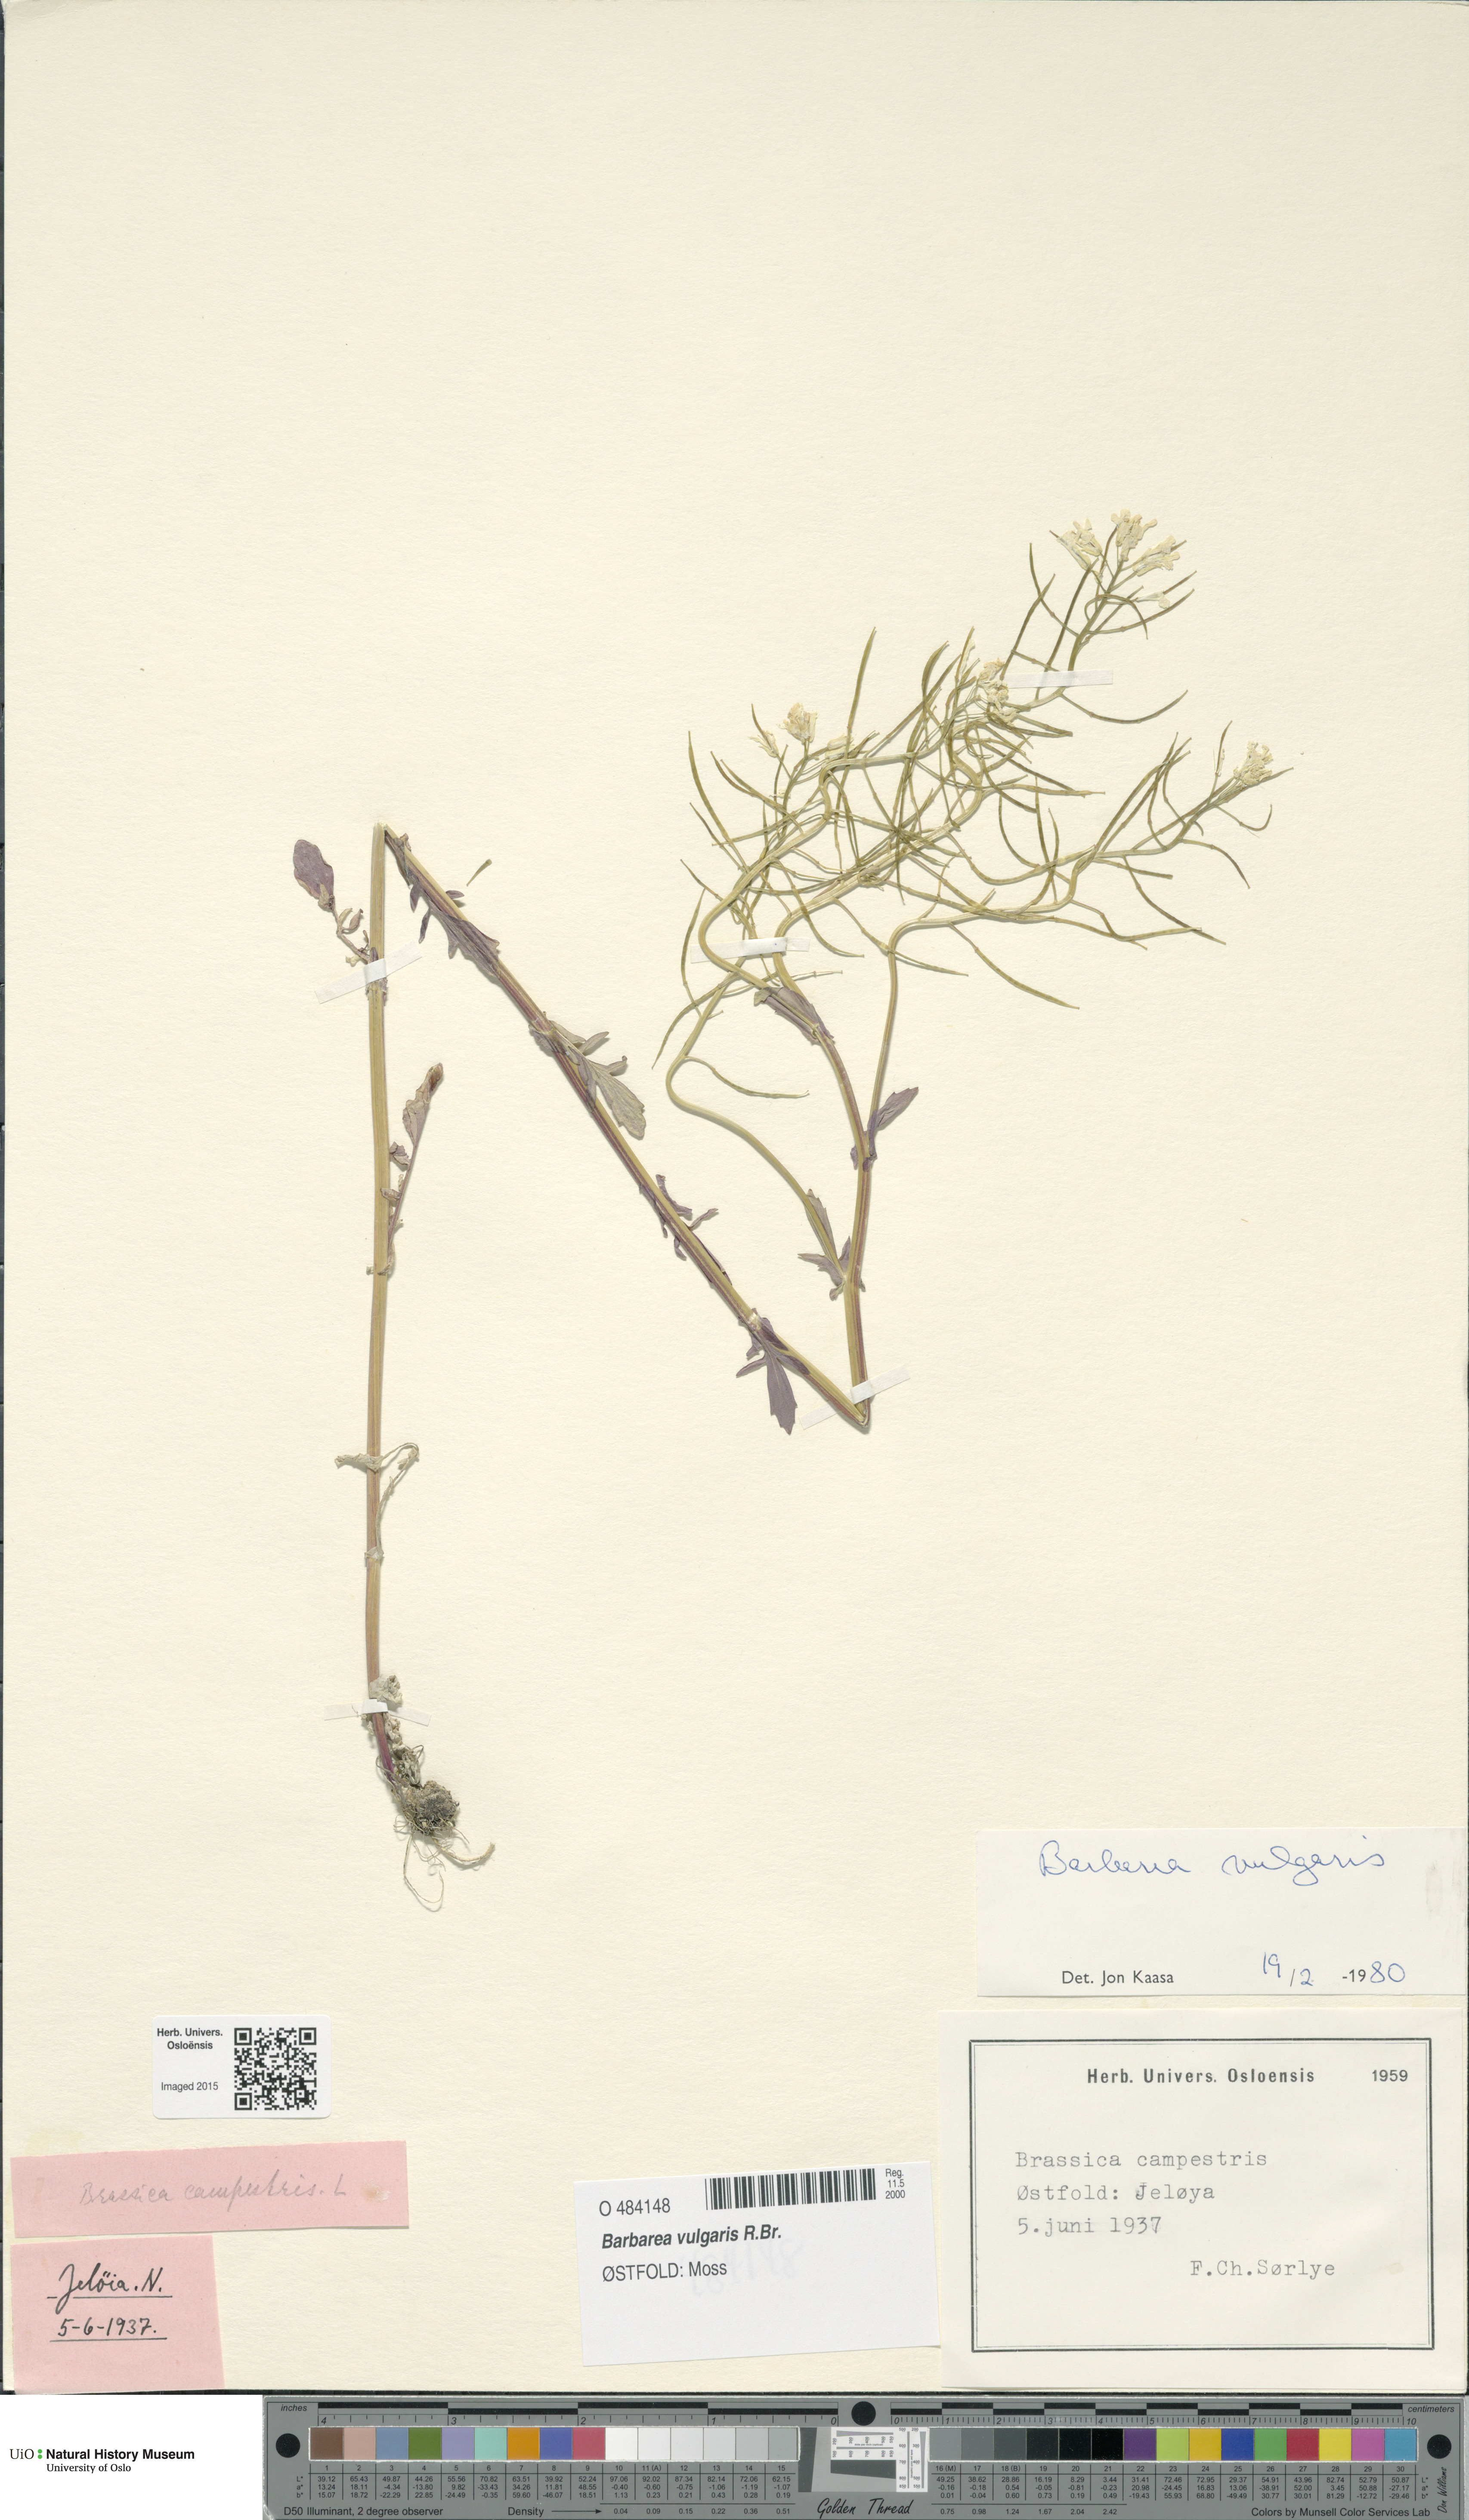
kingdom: Plantae
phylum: Tracheophyta
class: Magnoliopsida
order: Brassicales
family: Brassicaceae
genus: Barbarea
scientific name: Barbarea vulgaris
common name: Cressy-greens
